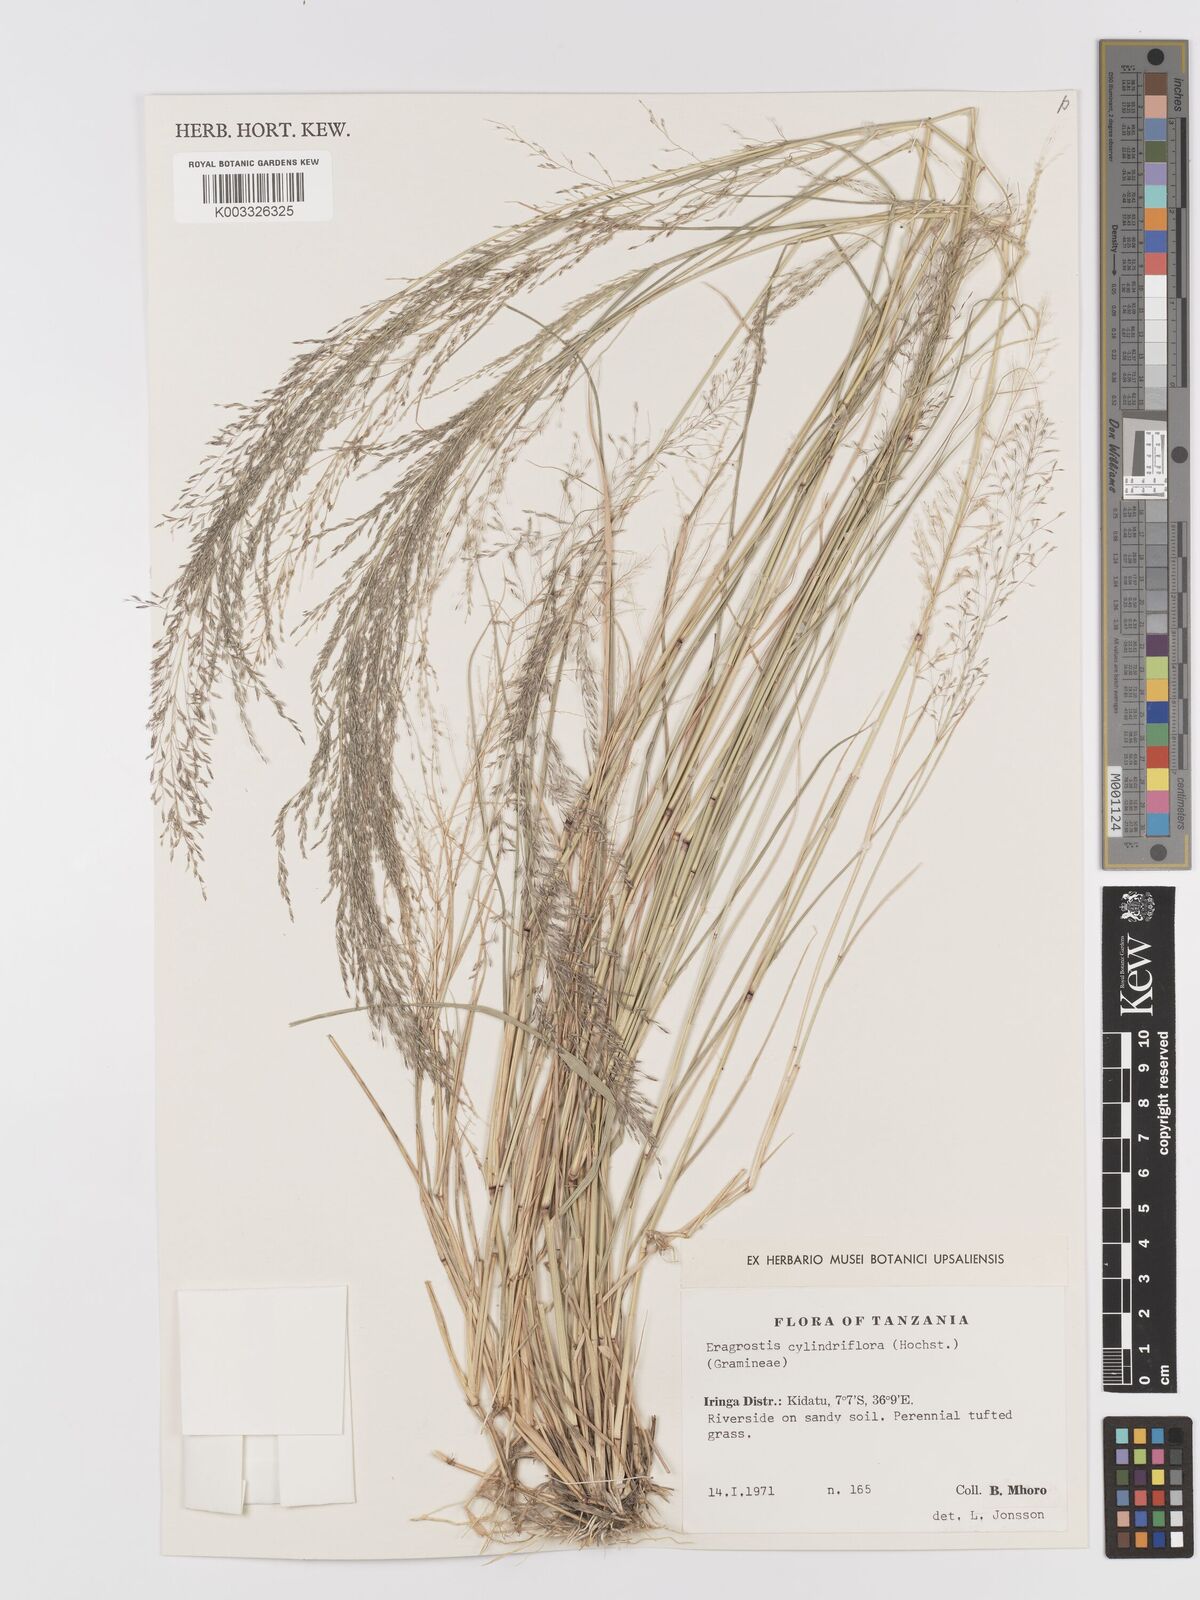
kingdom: Plantae
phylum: Tracheophyta
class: Liliopsida
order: Poales
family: Poaceae
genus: Eragrostis
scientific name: Eragrostis cylindriflora
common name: Cylinderflower lovegrass
